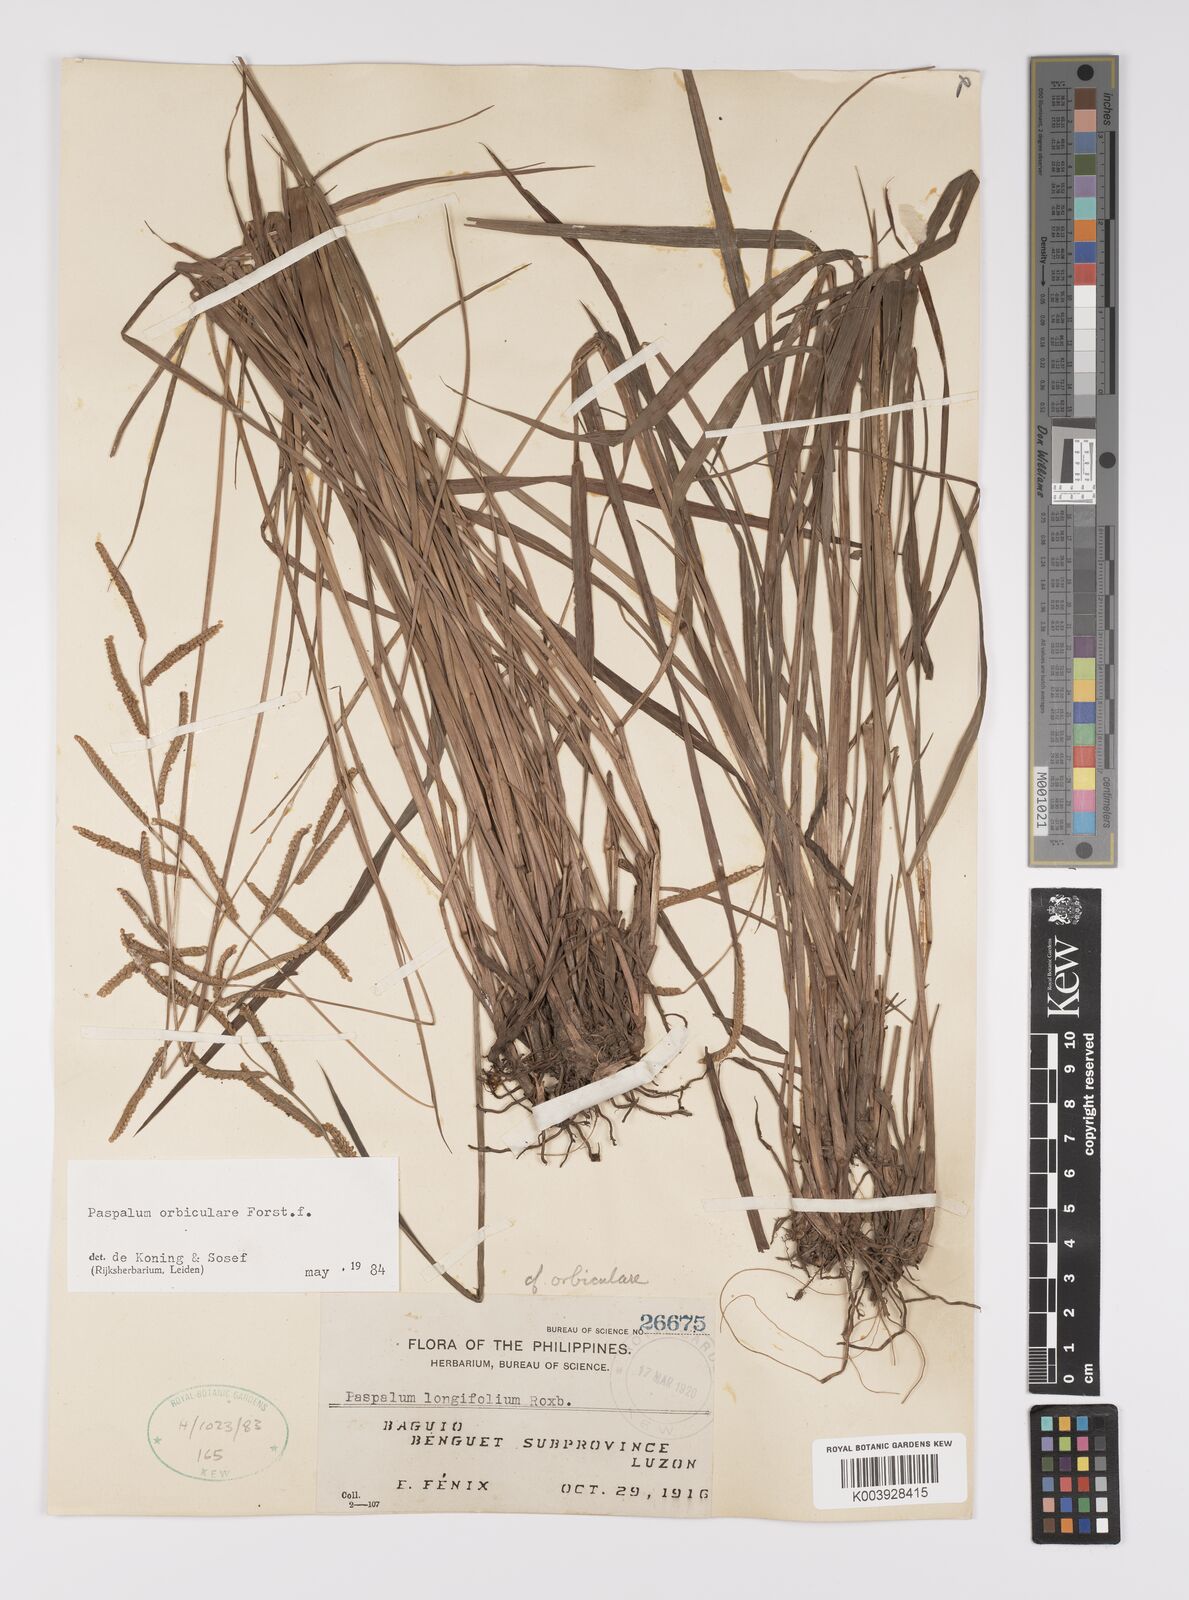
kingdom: Plantae
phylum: Tracheophyta
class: Liliopsida
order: Poales
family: Poaceae
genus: Paspalum
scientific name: Paspalum scrobiculatum
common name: Kodo millet
